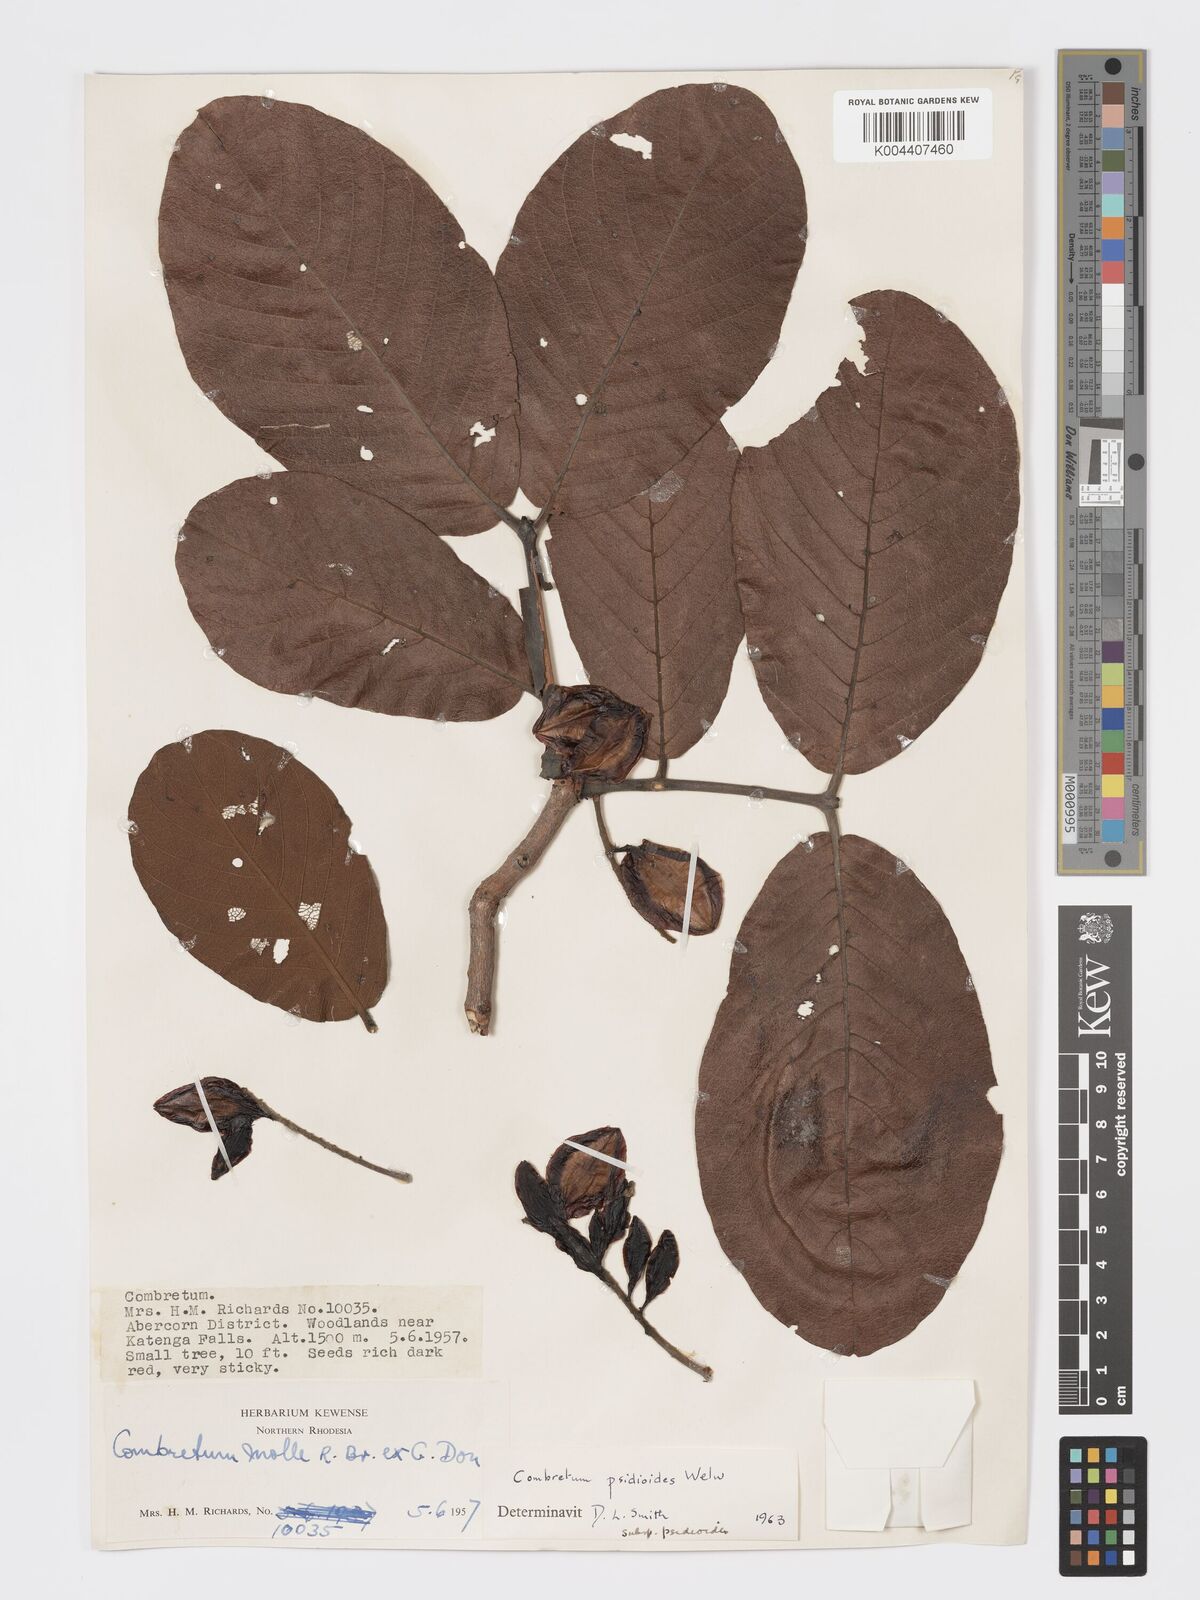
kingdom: Plantae
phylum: Tracheophyta
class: Magnoliopsida
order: Myrtales
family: Combretaceae
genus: Combretum
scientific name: Combretum psidioides
